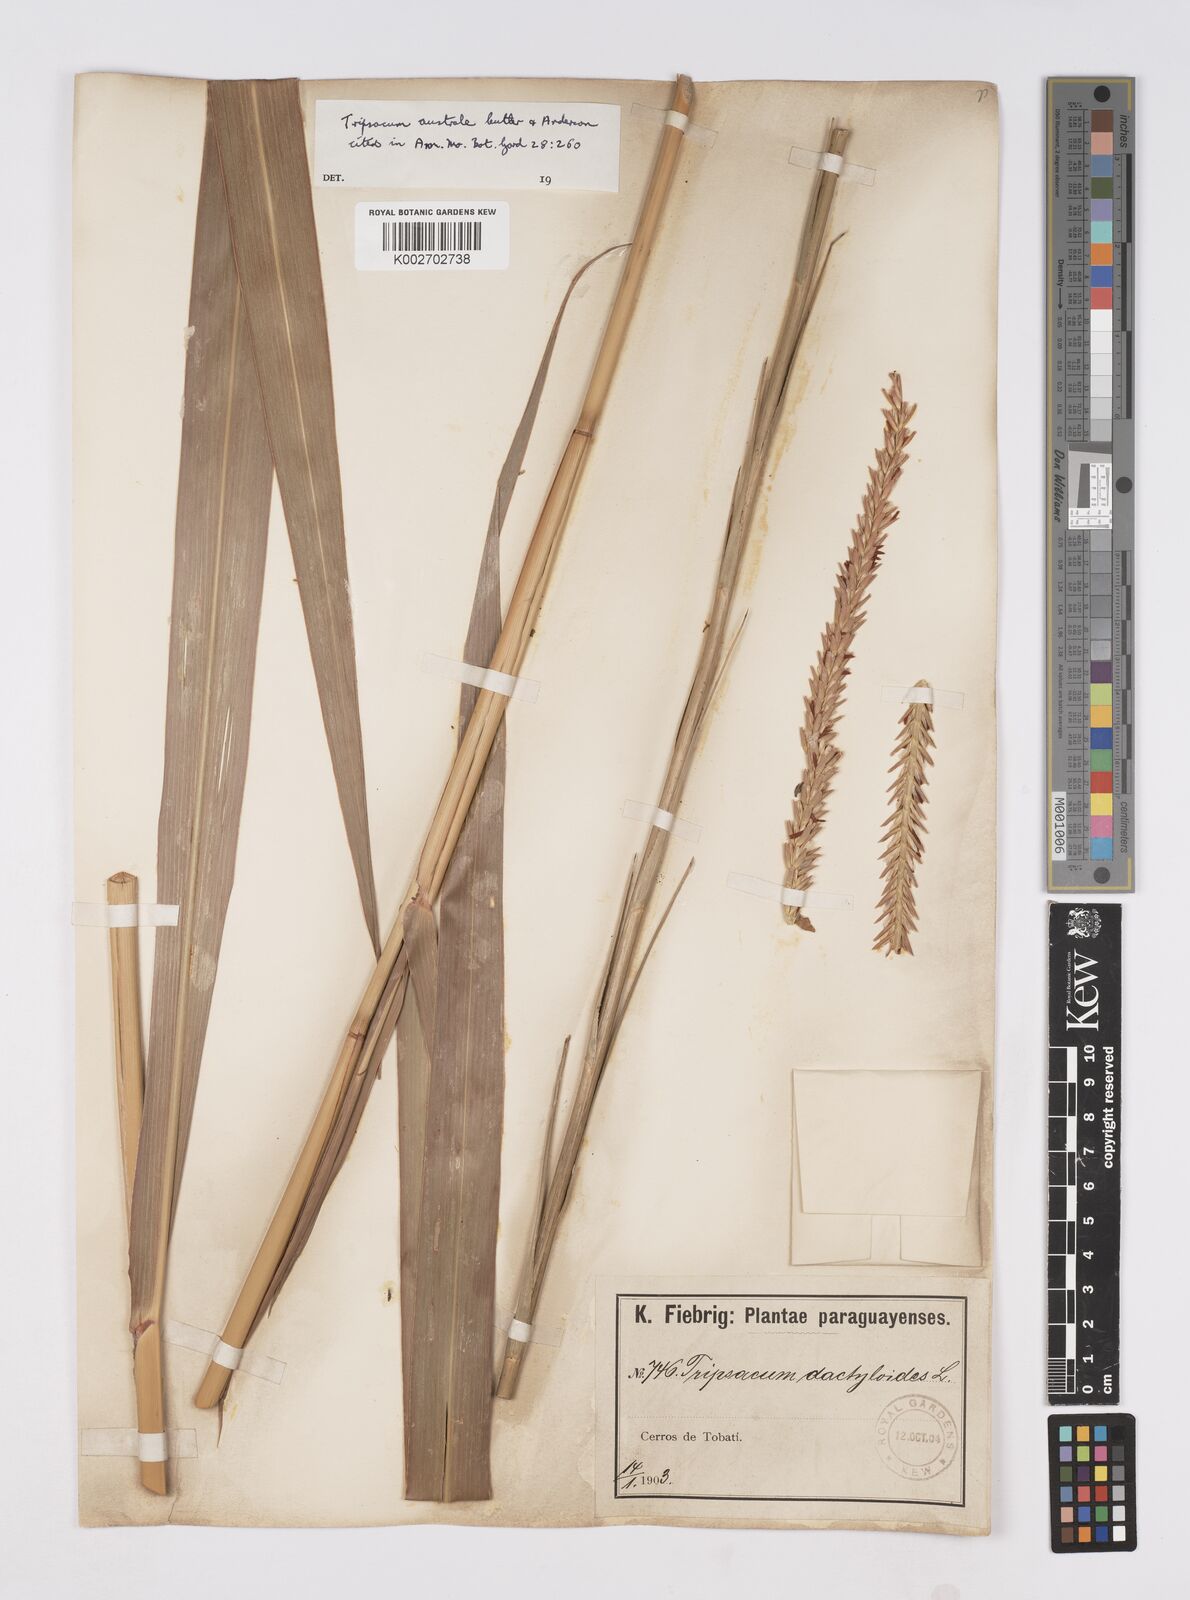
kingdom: Plantae
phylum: Tracheophyta
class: Liliopsida
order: Poales
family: Poaceae
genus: Tripsacum
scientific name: Tripsacum australe
